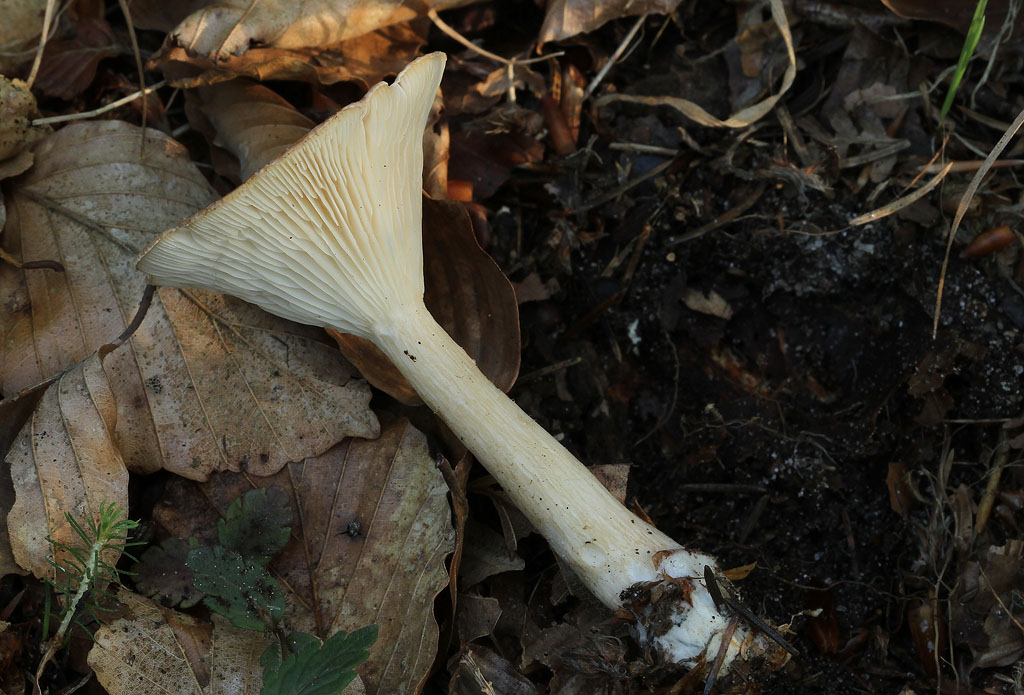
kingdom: Fungi
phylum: Basidiomycota
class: Agaricomycetes
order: Agaricales
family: Tricholomataceae
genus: Infundibulicybe
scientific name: Infundibulicybe gibba
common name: almindelig tragthat
